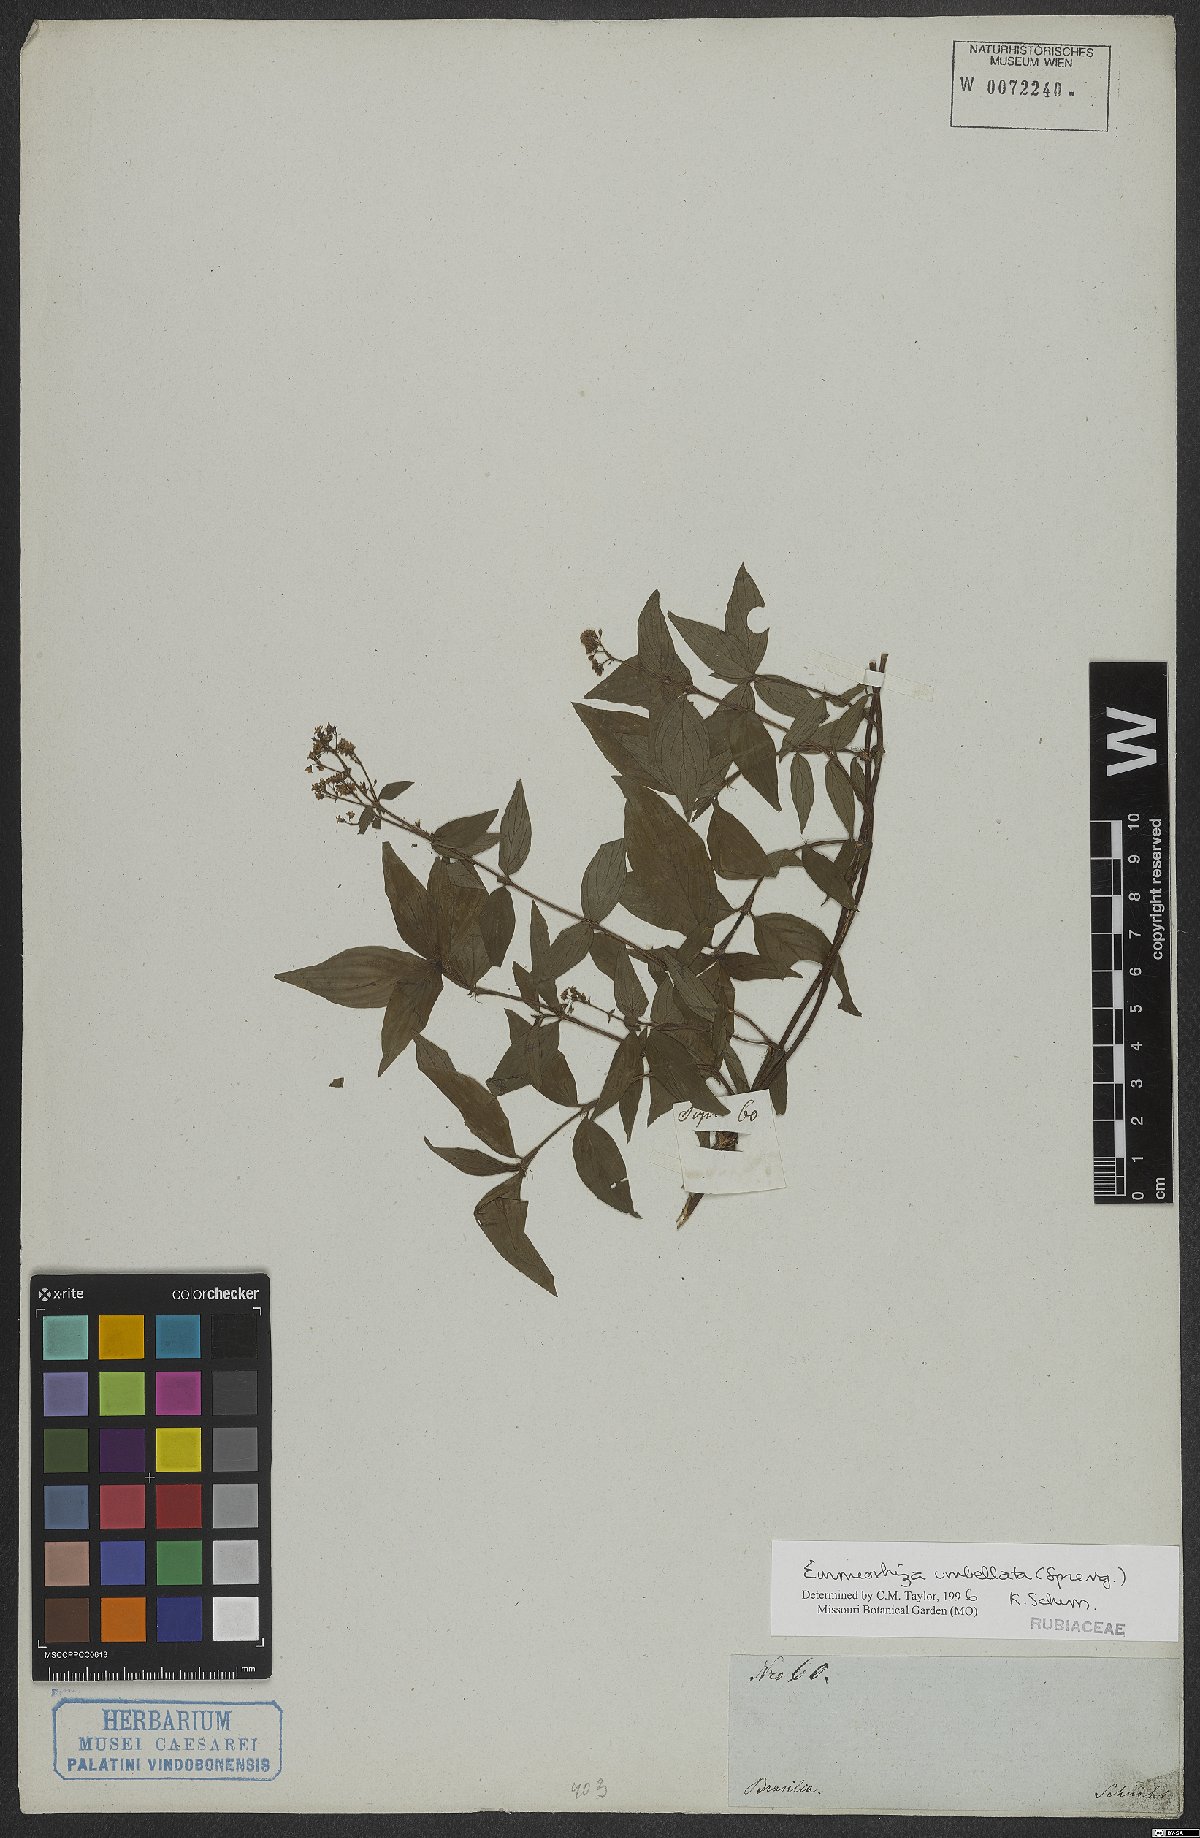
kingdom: Plantae
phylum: Tracheophyta
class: Magnoliopsida
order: Gentianales
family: Rubiaceae
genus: Emmeorhiza
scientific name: Emmeorhiza umbellata
